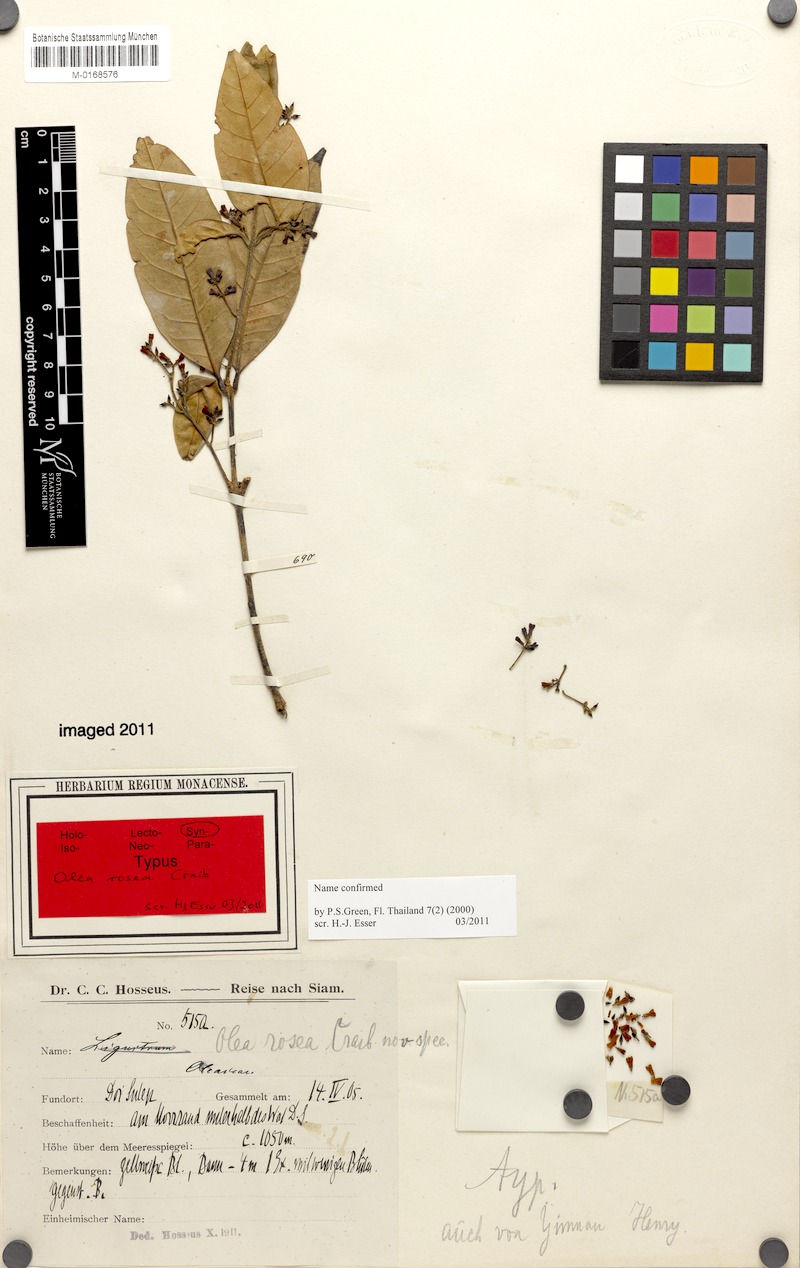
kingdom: Plantae
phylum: Tracheophyta
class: Magnoliopsida
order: Lamiales
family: Oleaceae
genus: Olea
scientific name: Olea rosea
